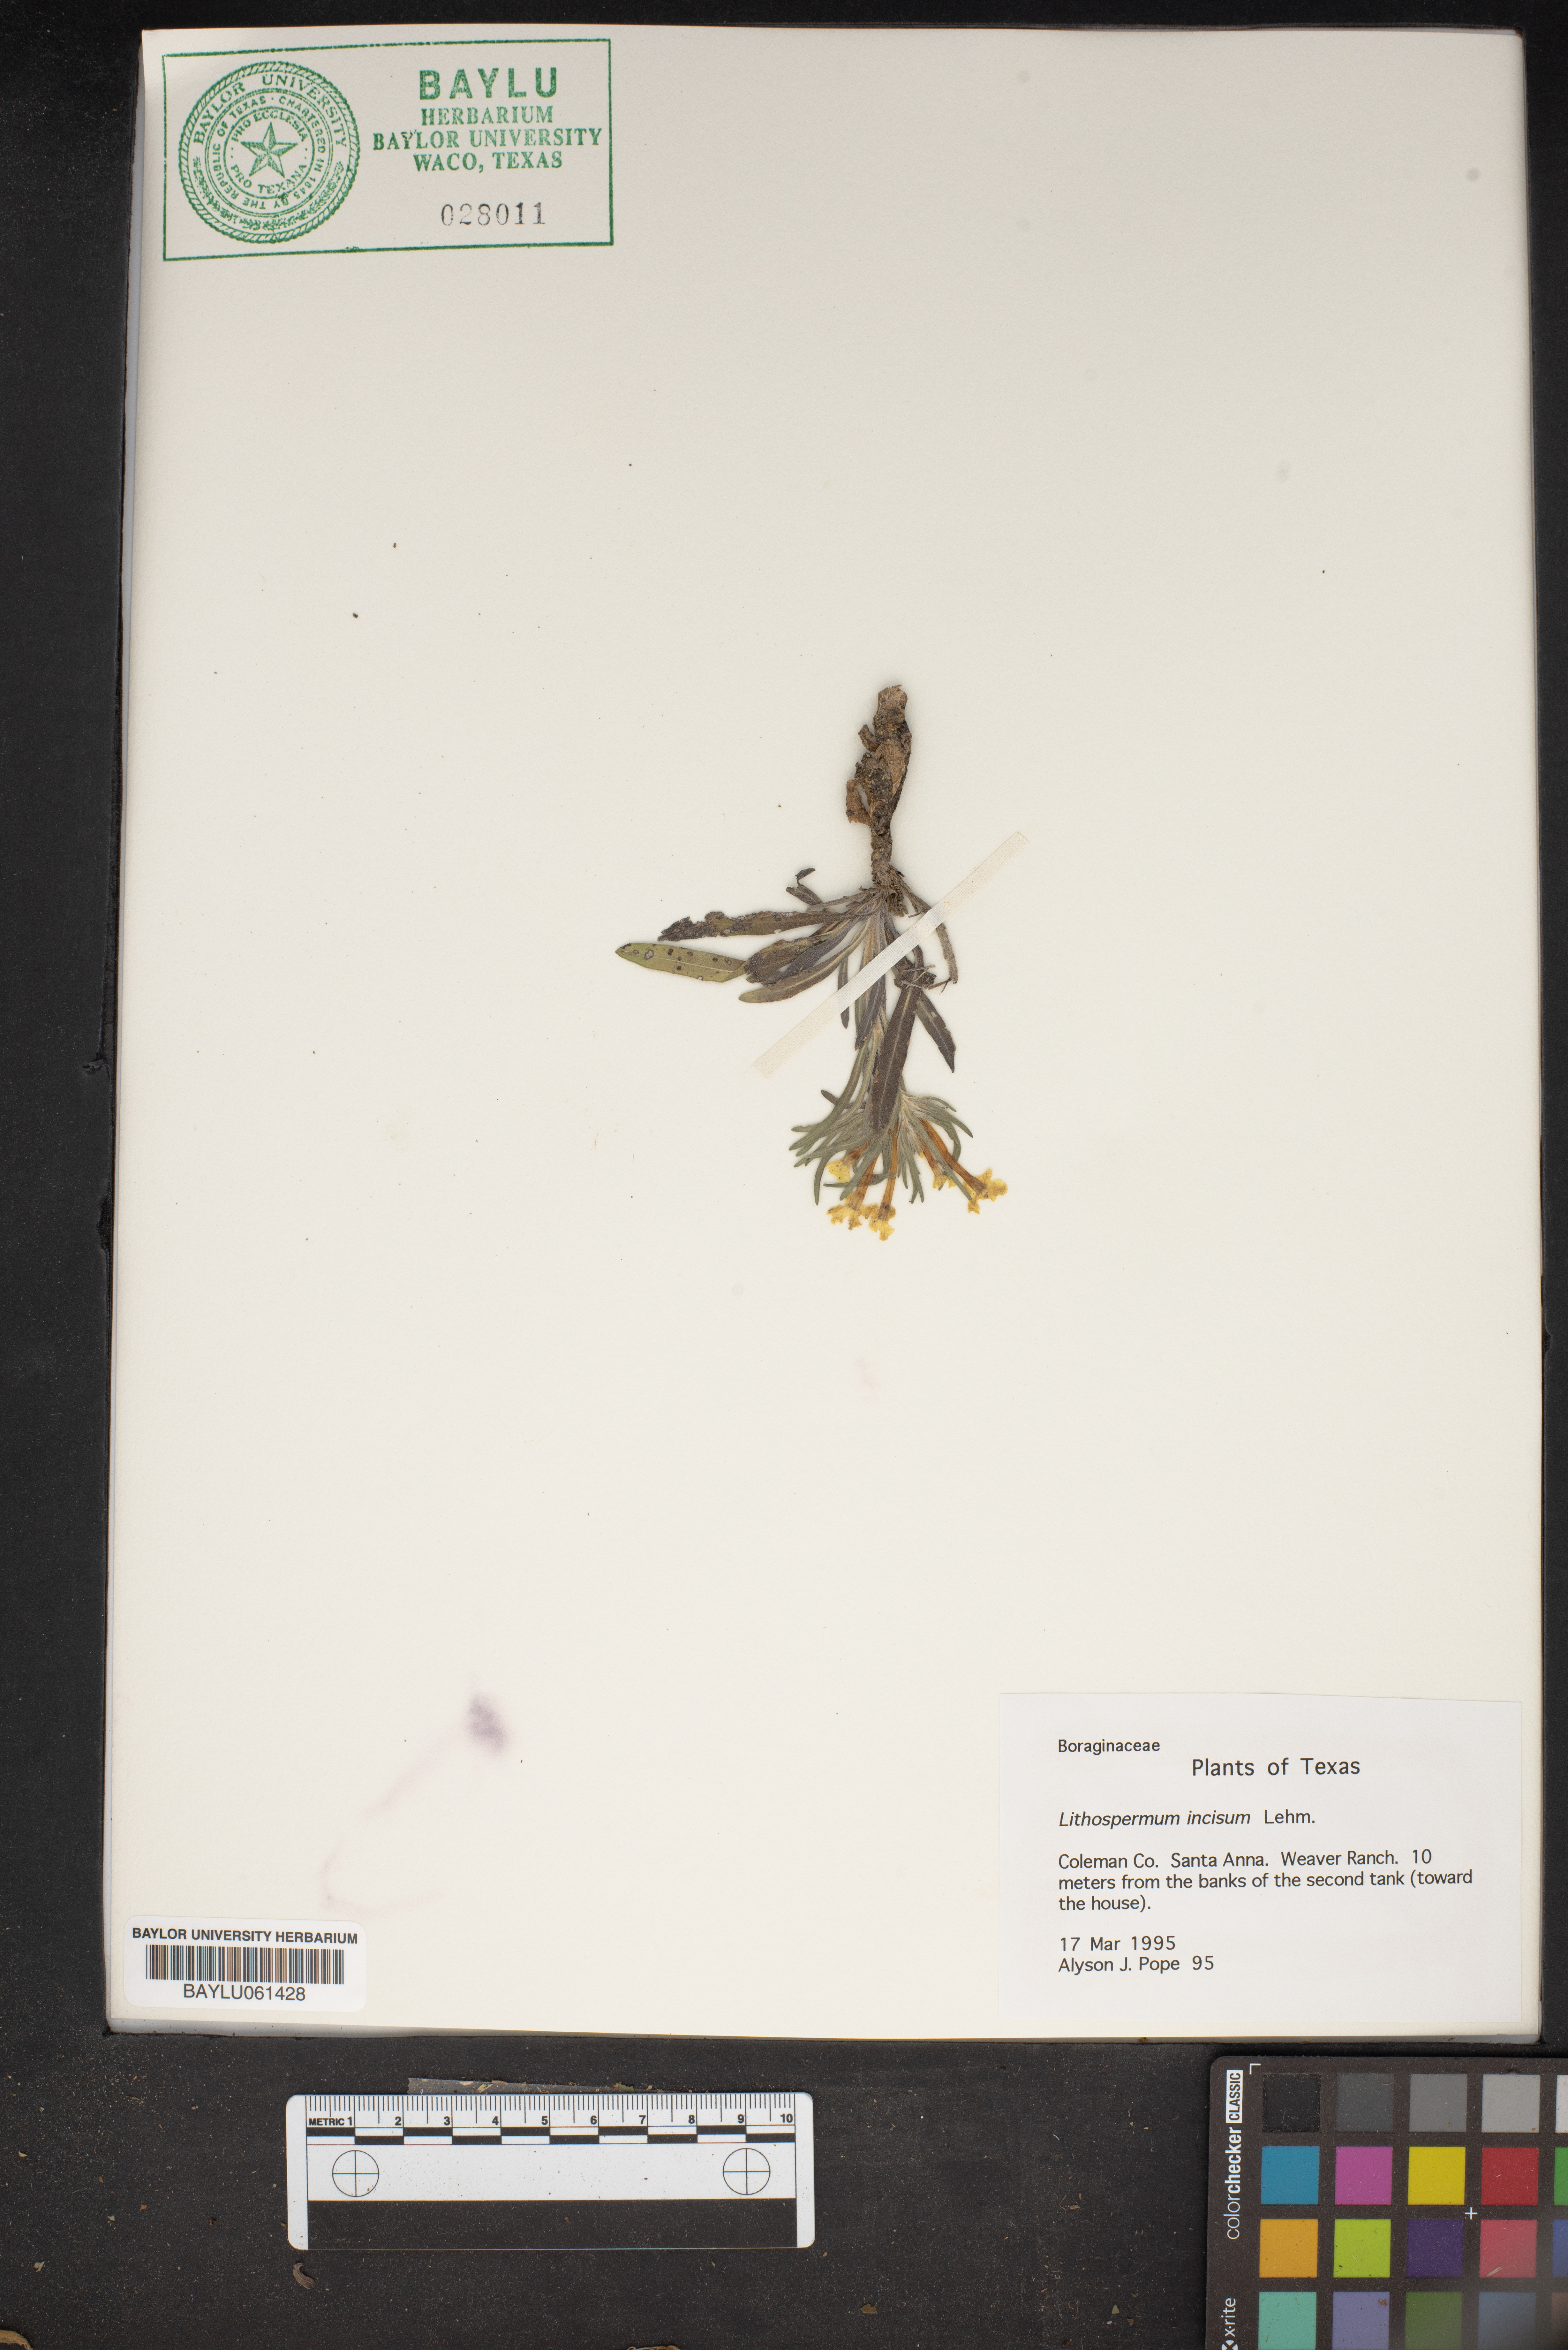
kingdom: Plantae
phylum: Tracheophyta
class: Magnoliopsida
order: Boraginales
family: Boraginaceae
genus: Lithospermum
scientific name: Lithospermum incisum
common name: Fringed gromwell
